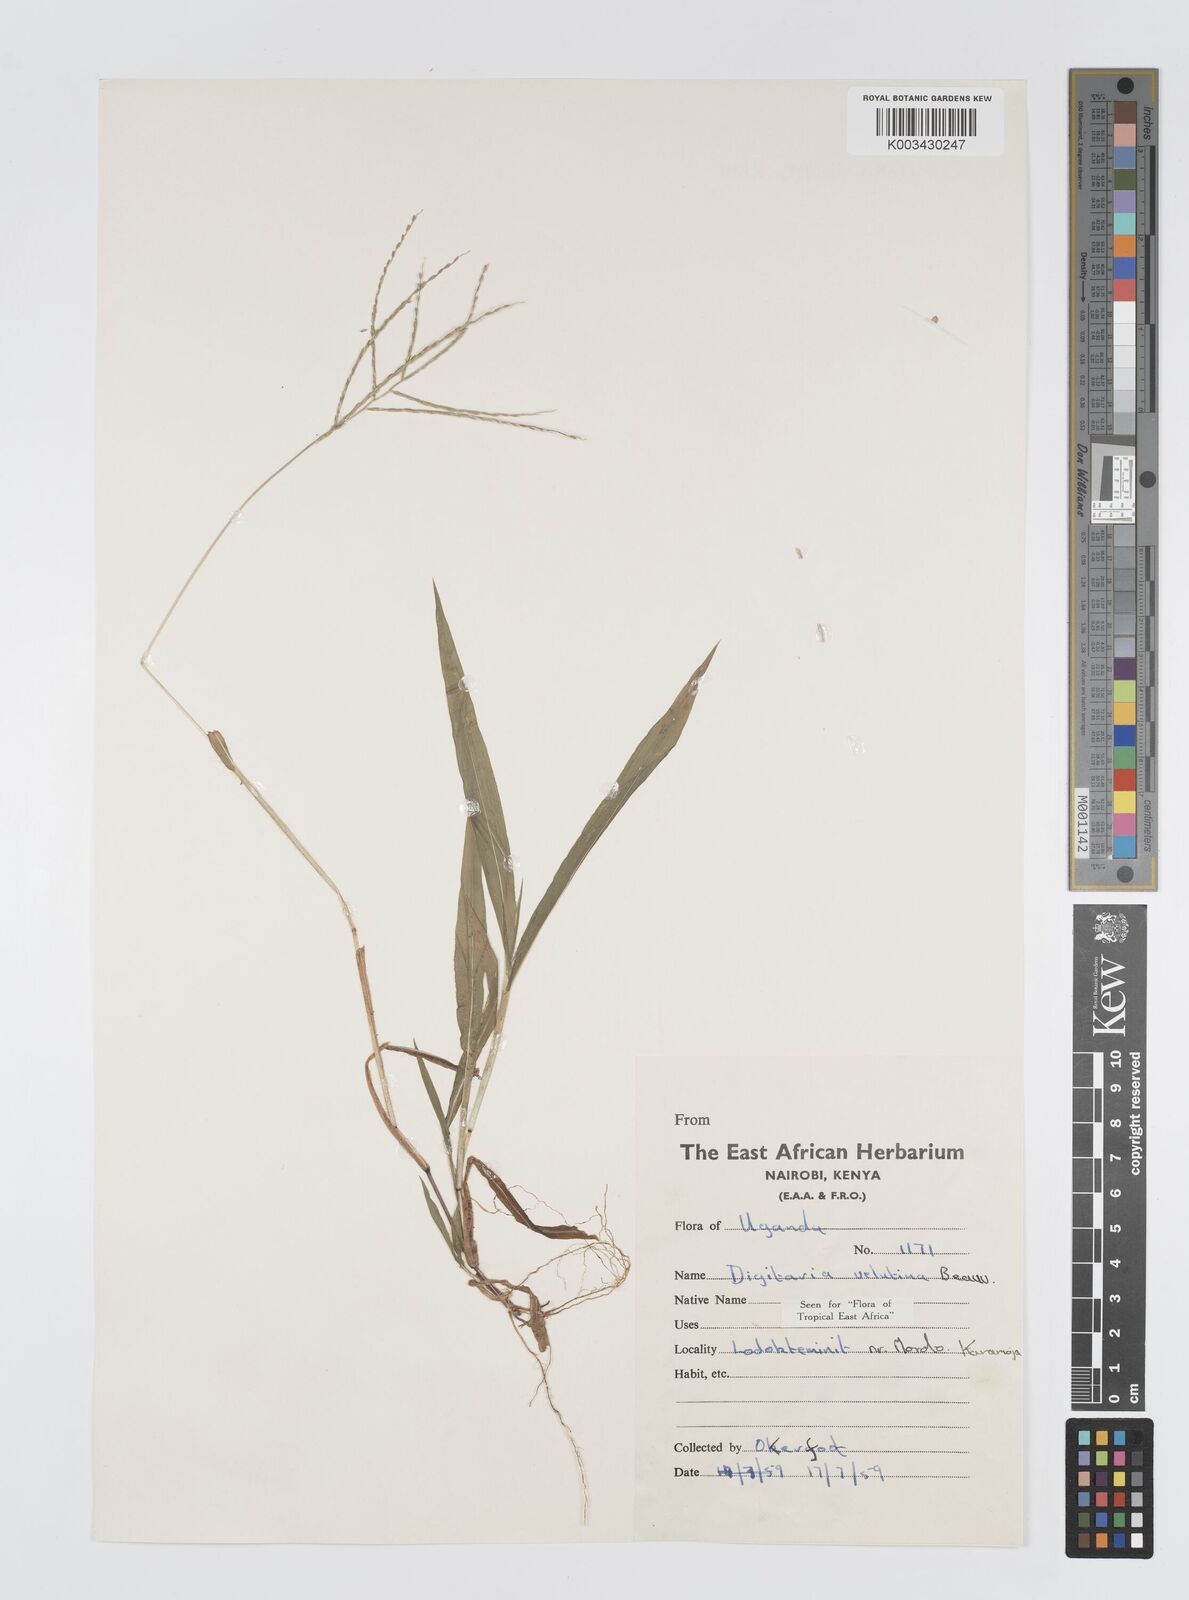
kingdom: Plantae
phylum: Tracheophyta
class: Liliopsida
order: Poales
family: Poaceae
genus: Digitaria
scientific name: Digitaria velutina
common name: Long-plume finger grass
